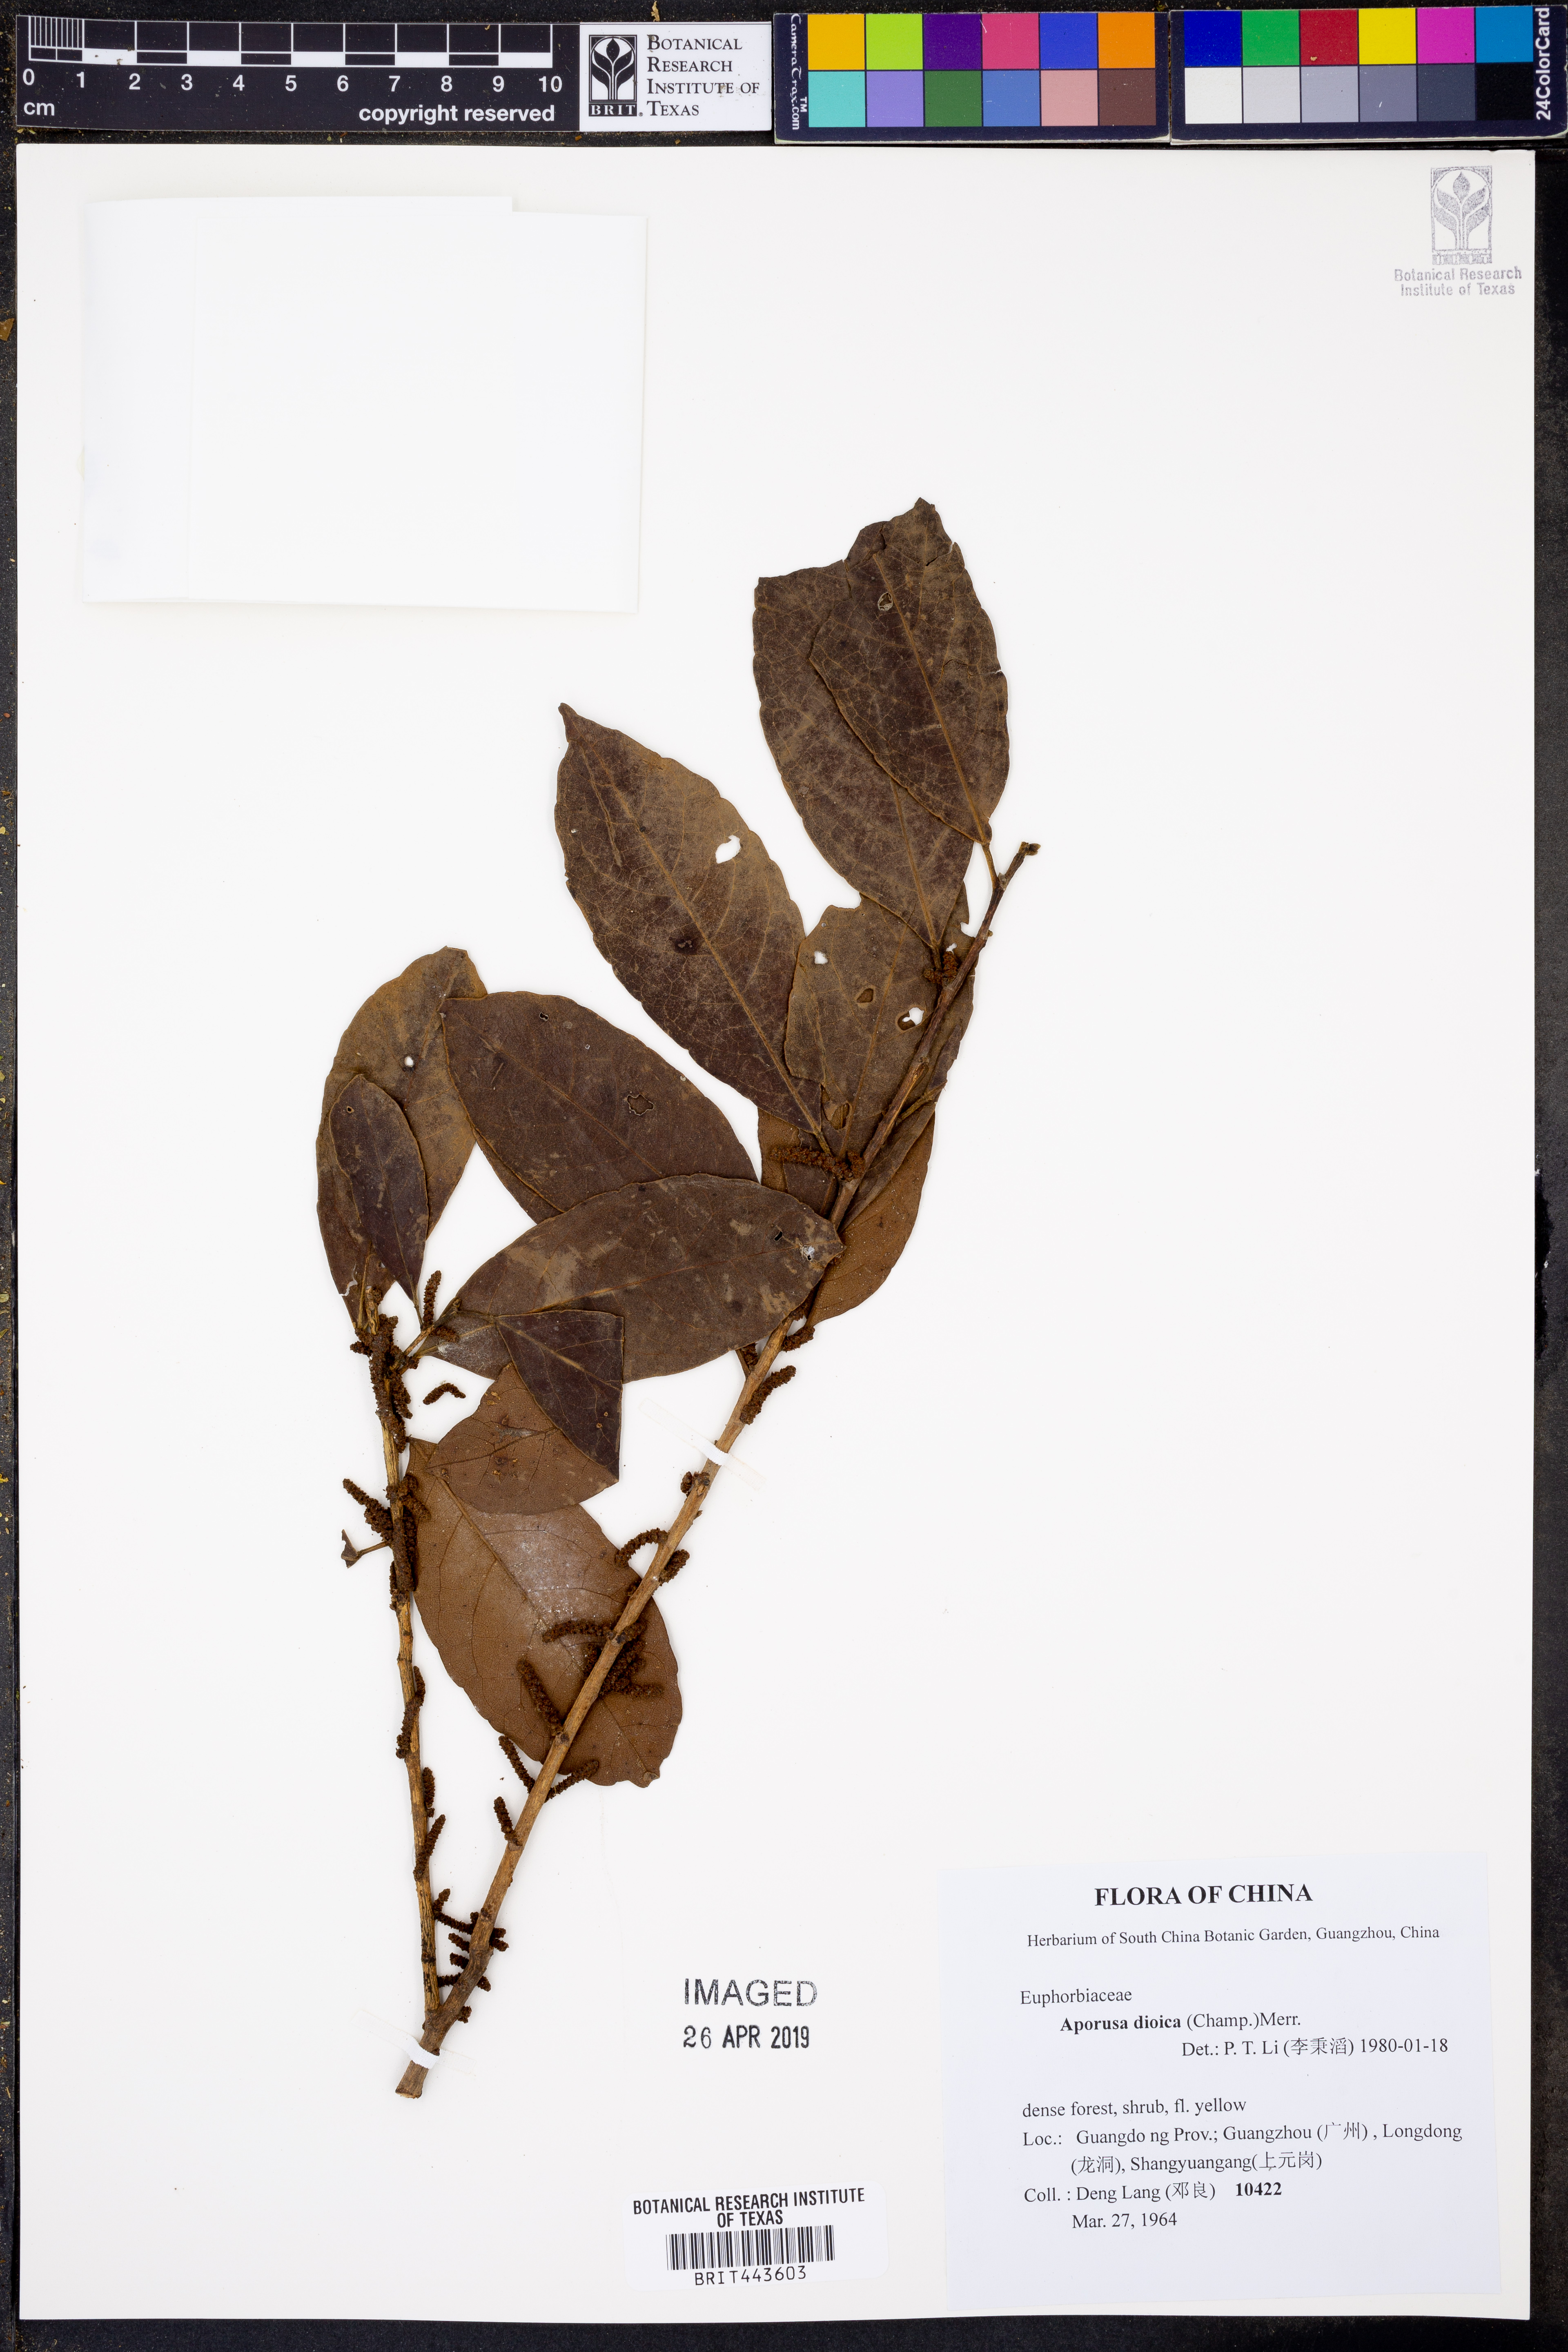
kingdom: Plantae
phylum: Tracheophyta
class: Magnoliopsida
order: Malpighiales
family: Phyllanthaceae
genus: Aporosa
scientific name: Aporosa octandra
